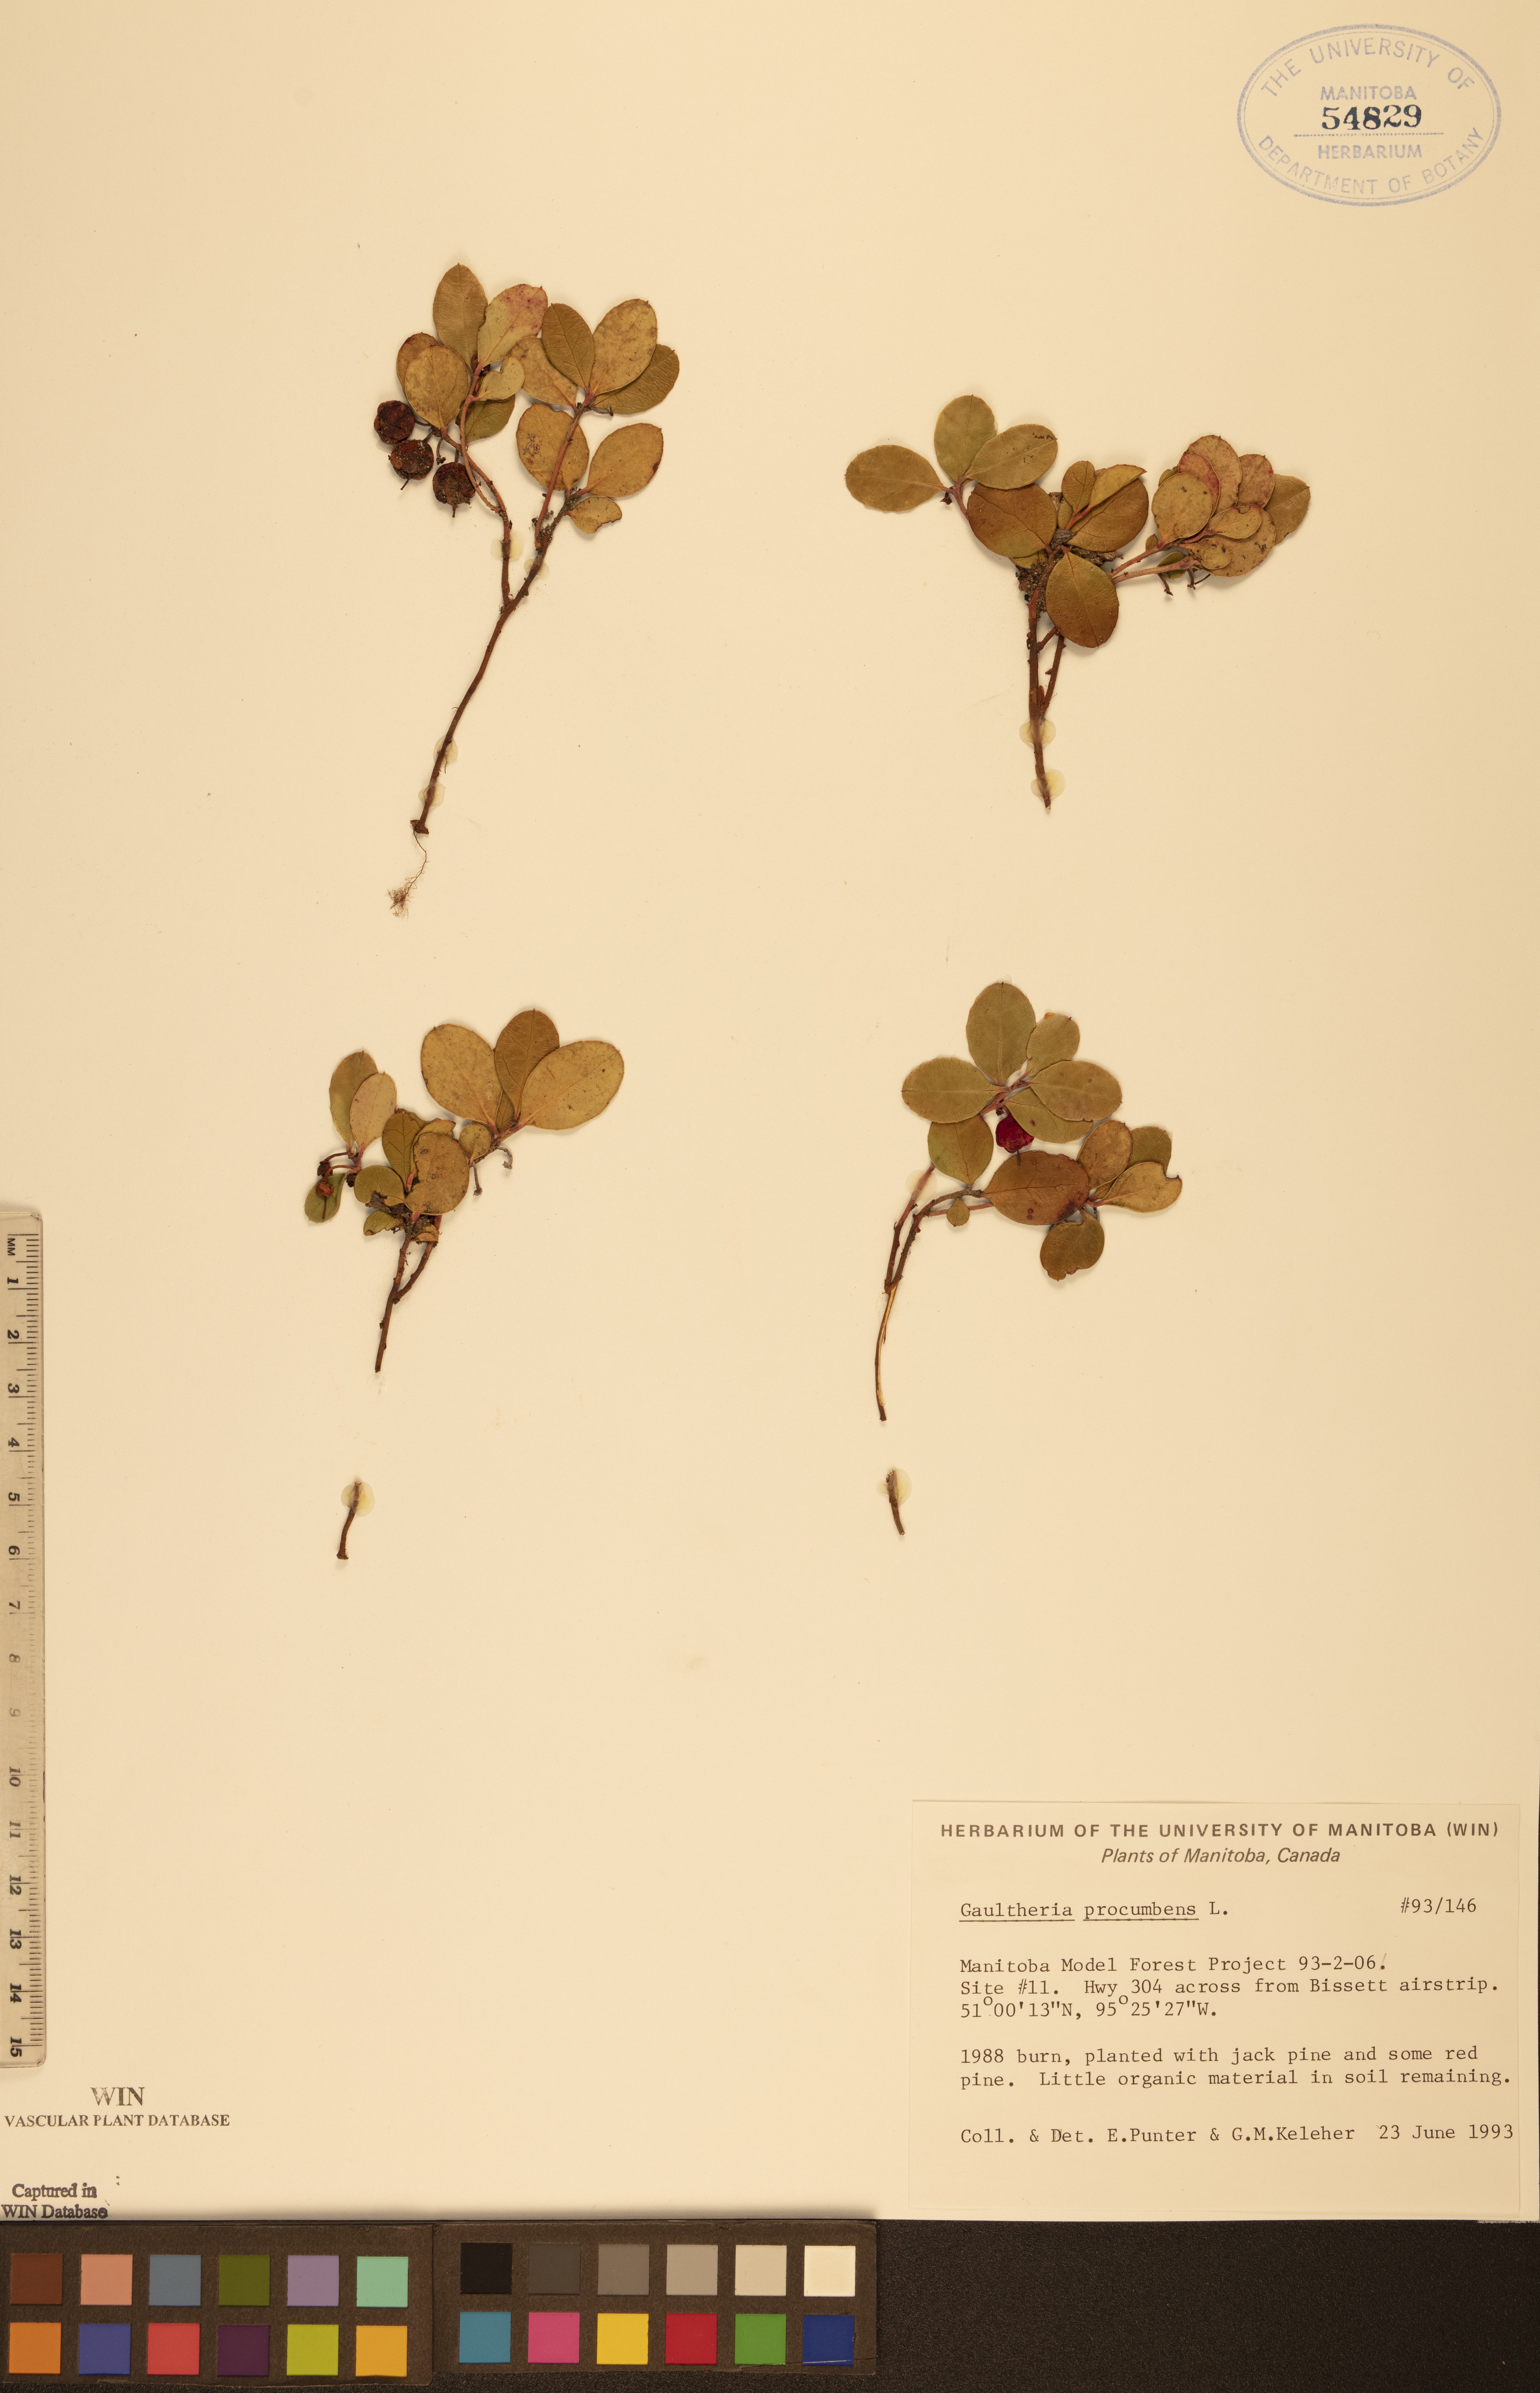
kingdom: Plantae
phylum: Tracheophyta
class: Magnoliopsida
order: Ericales
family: Ericaceae
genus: Gaultheria
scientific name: Gaultheria procumbens
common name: Checkerberry
